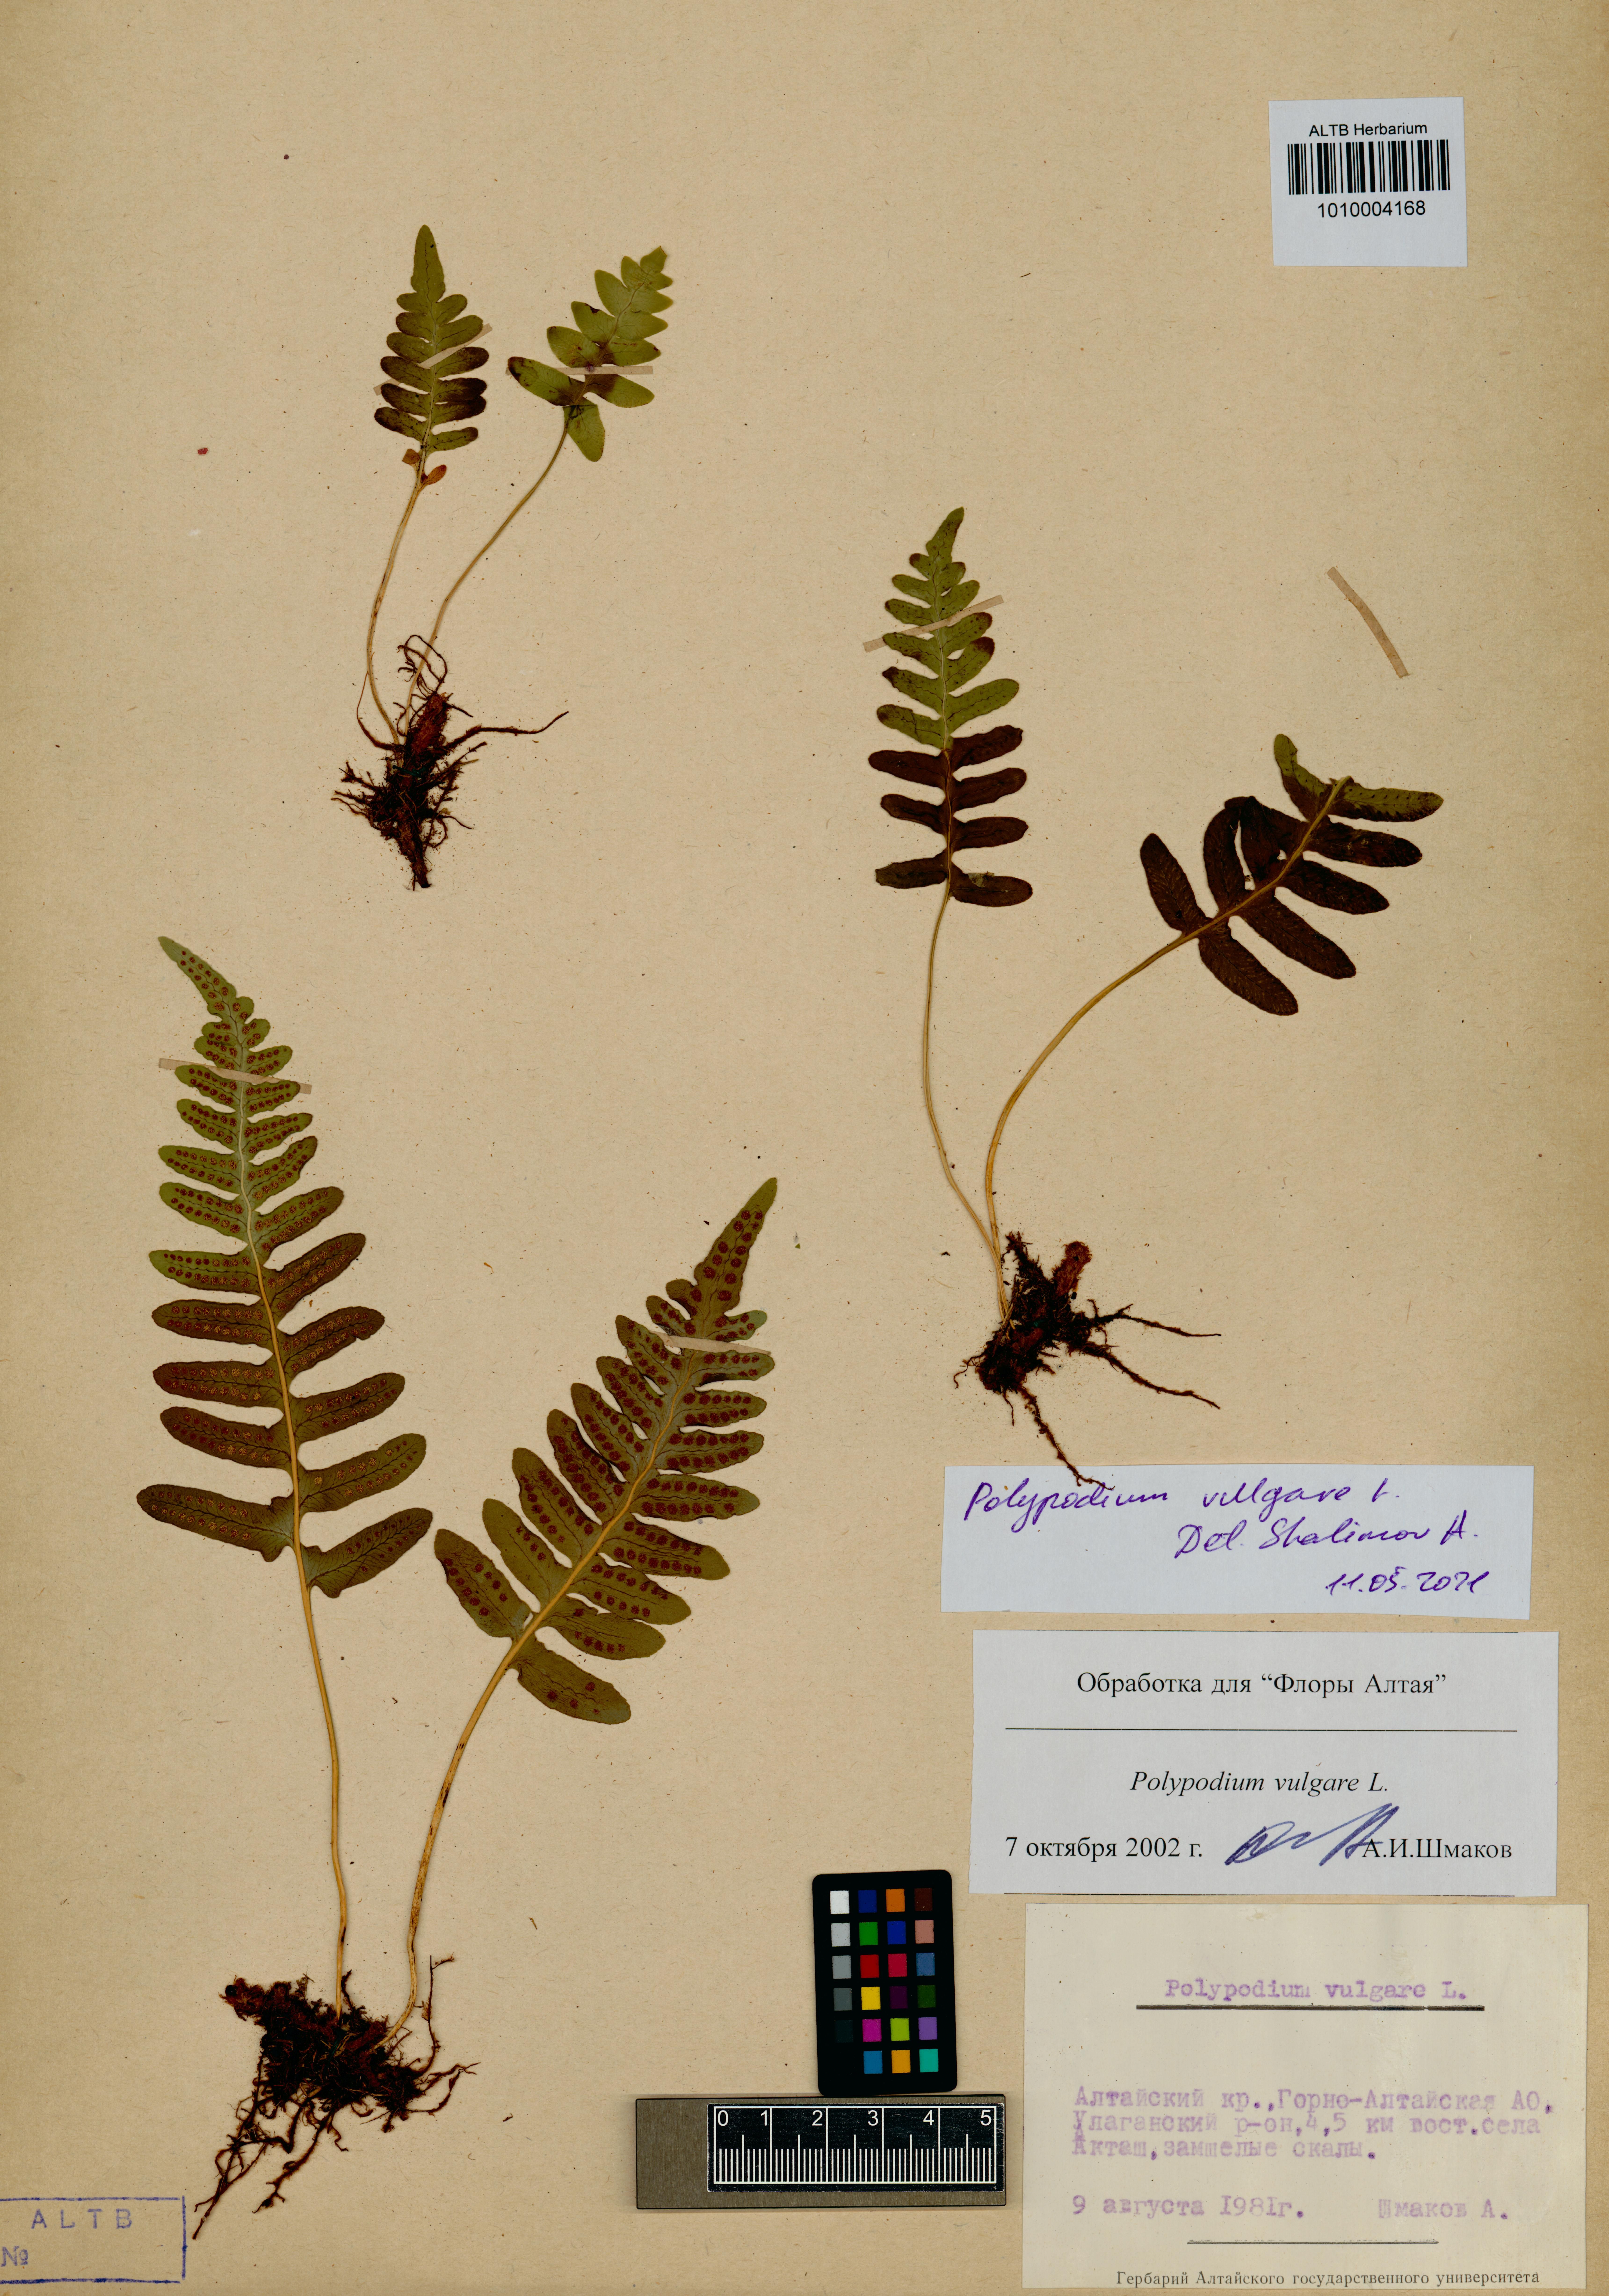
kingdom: Plantae
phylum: Tracheophyta
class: Polypodiopsida
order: Polypodiales
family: Polypodiaceae
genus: Polypodium
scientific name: Polypodium vulgare
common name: Common polypody
